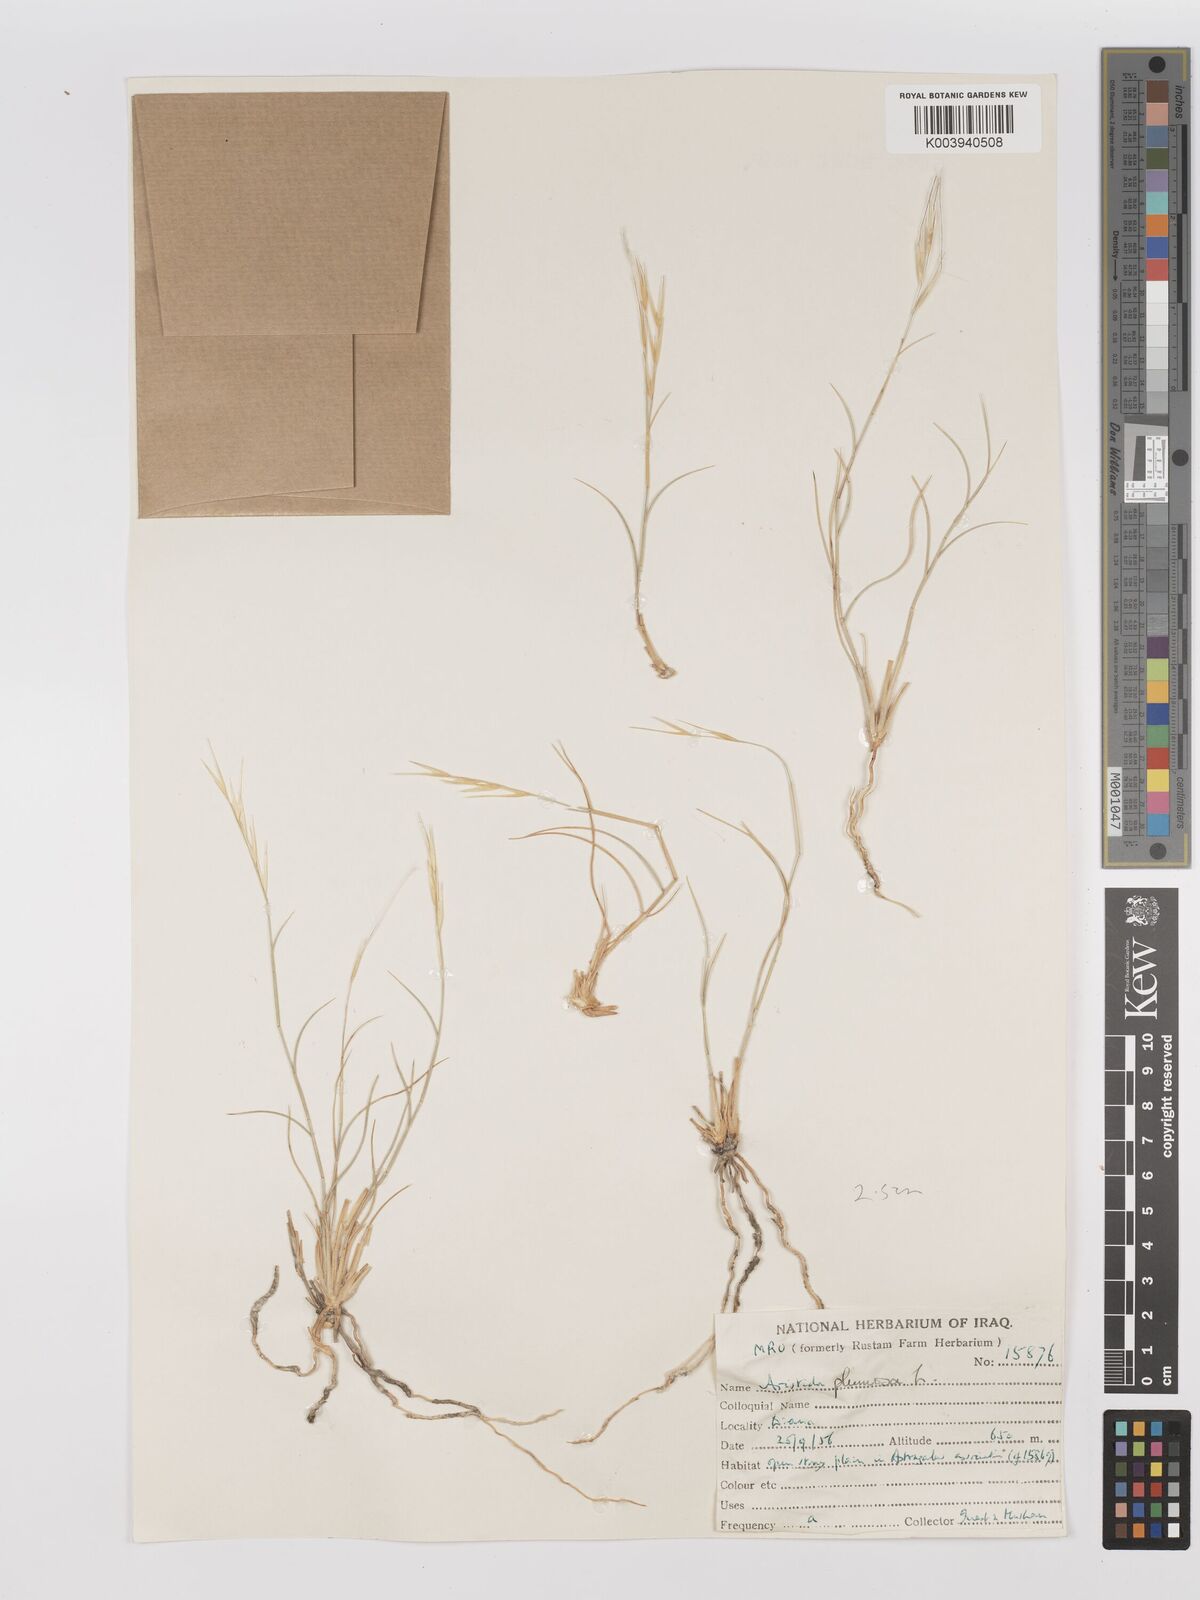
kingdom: Plantae
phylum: Tracheophyta
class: Liliopsida
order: Poales
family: Poaceae
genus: Stipagrostis
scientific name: Stipagrostis plumosa
